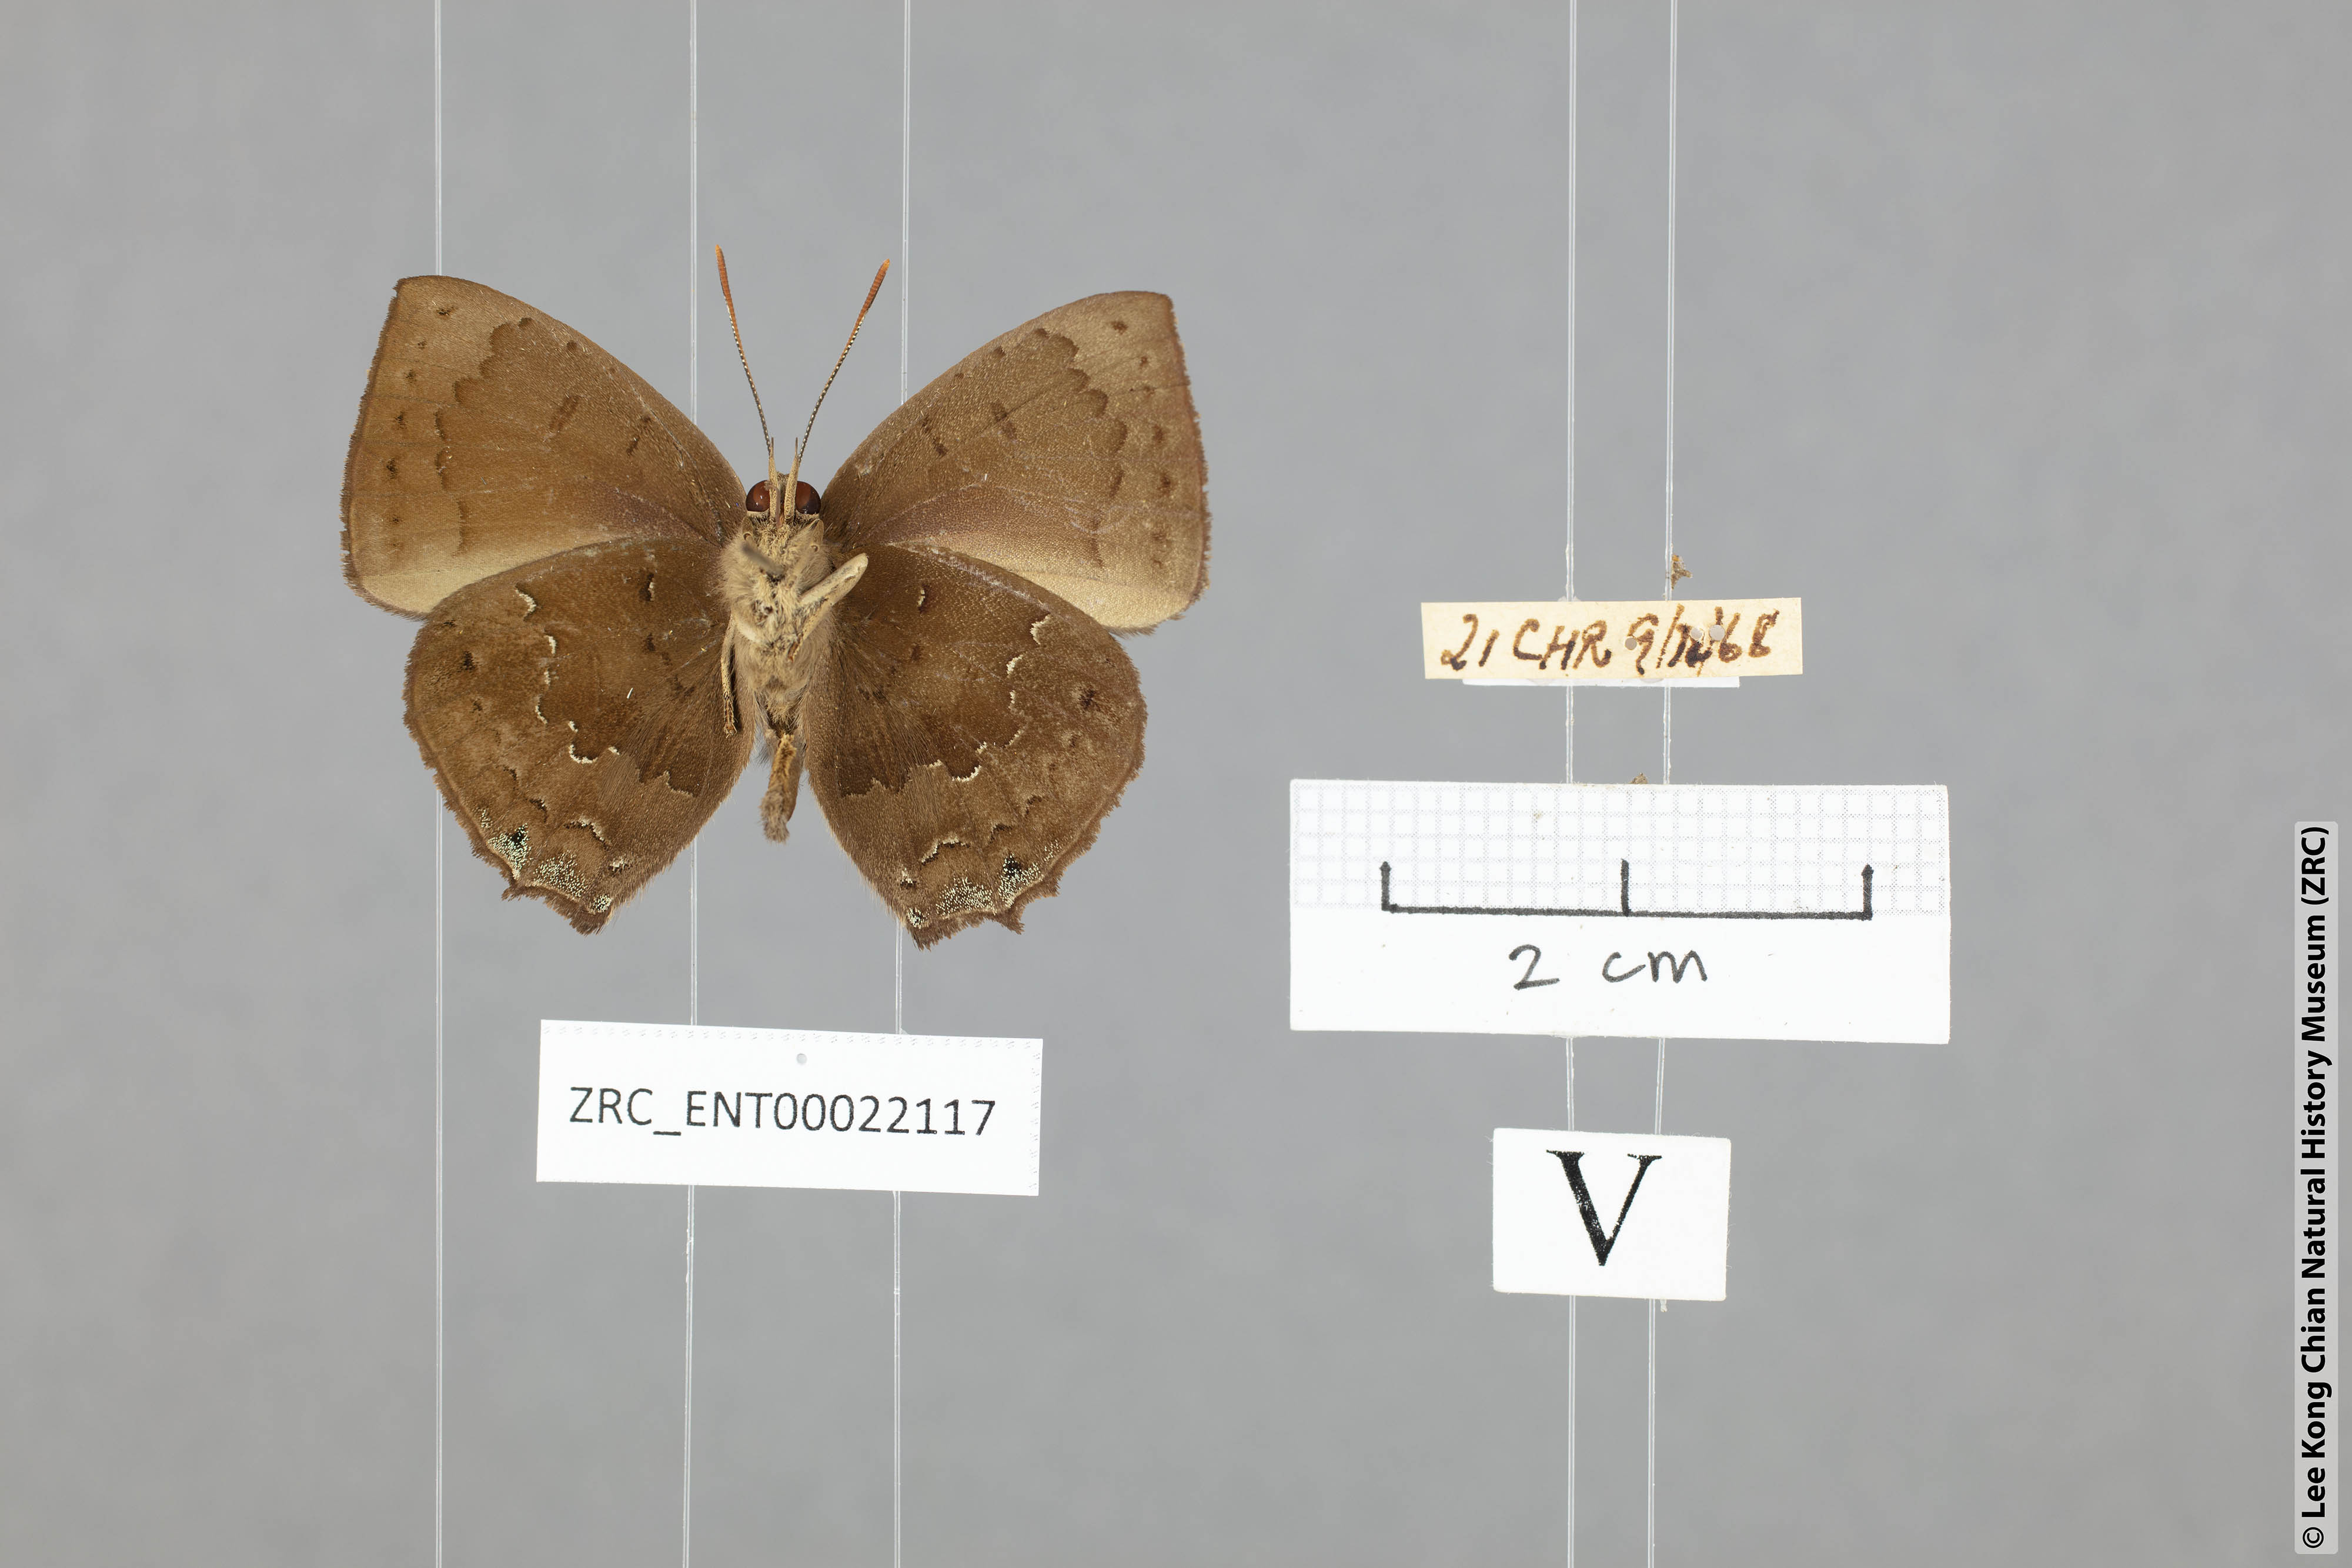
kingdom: Animalia
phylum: Arthropoda
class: Insecta
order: Lepidoptera
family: Lycaenidae
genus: Surendra
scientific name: Surendra florimel
